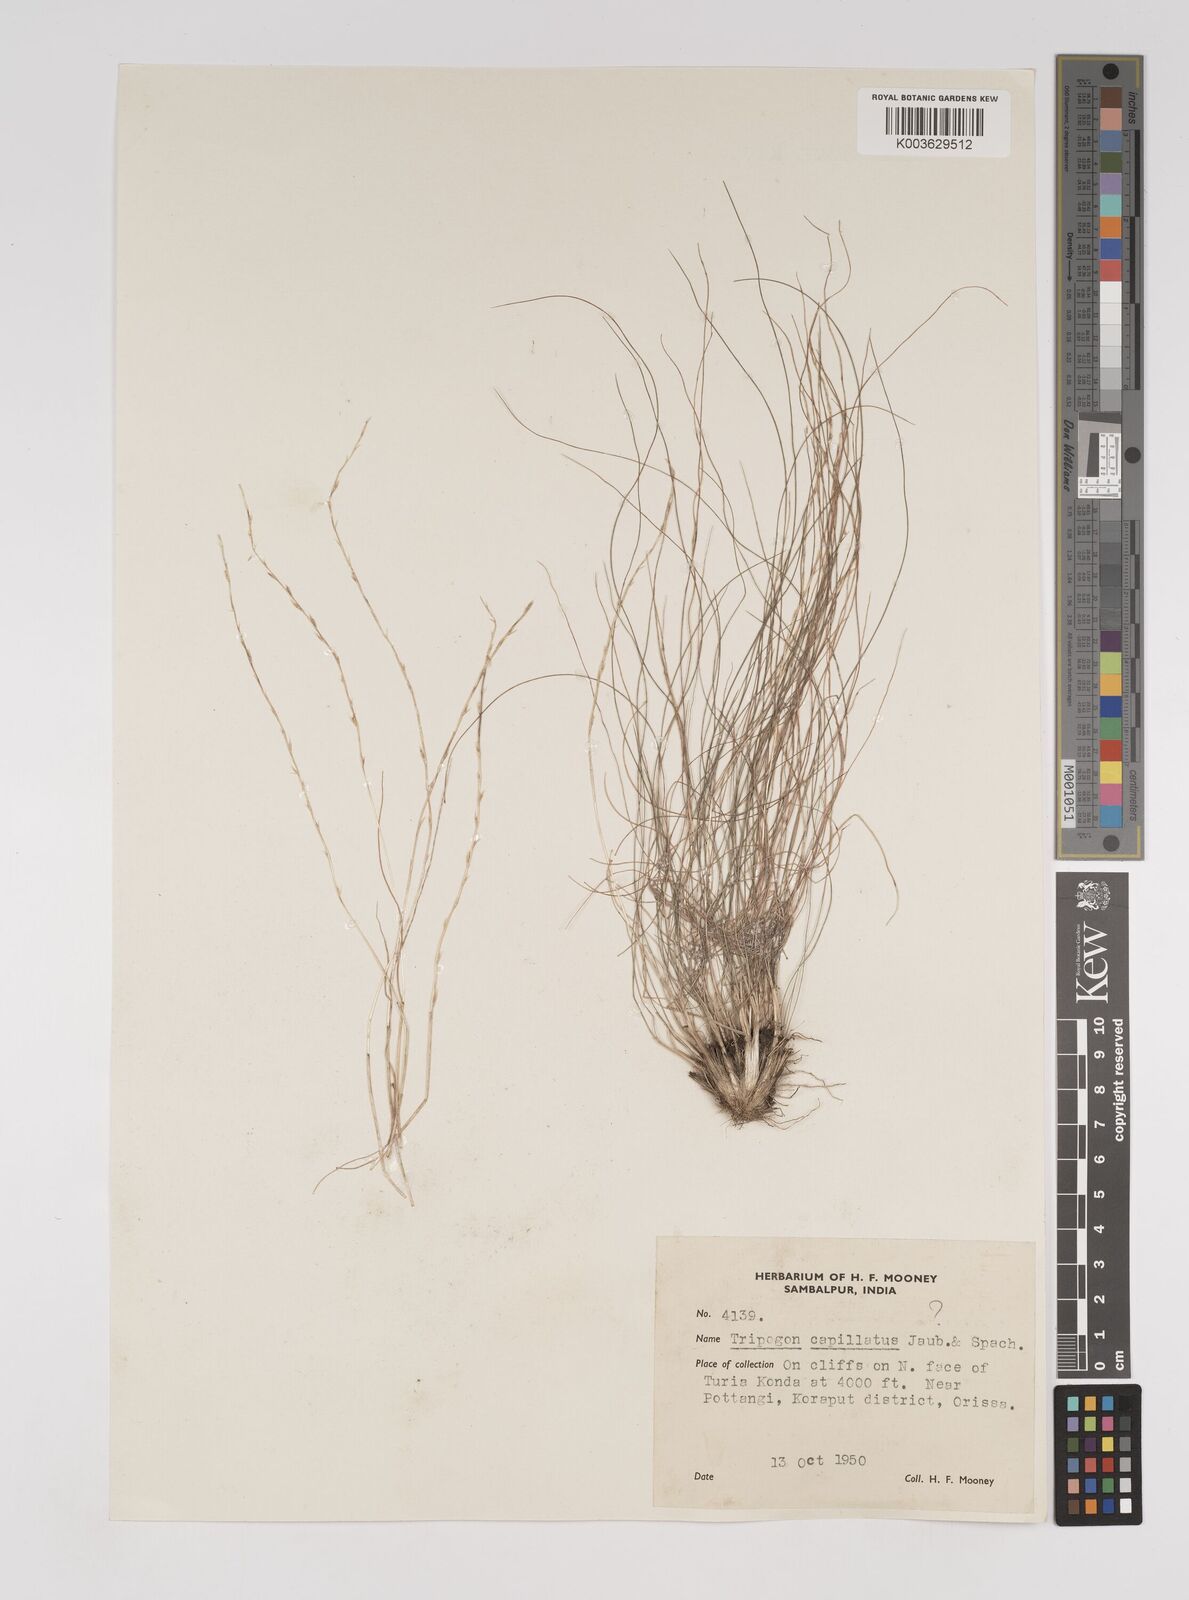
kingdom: Plantae
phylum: Tracheophyta
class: Liliopsida
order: Poales
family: Poaceae
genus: Tripogon
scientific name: Tripogon capillatus
